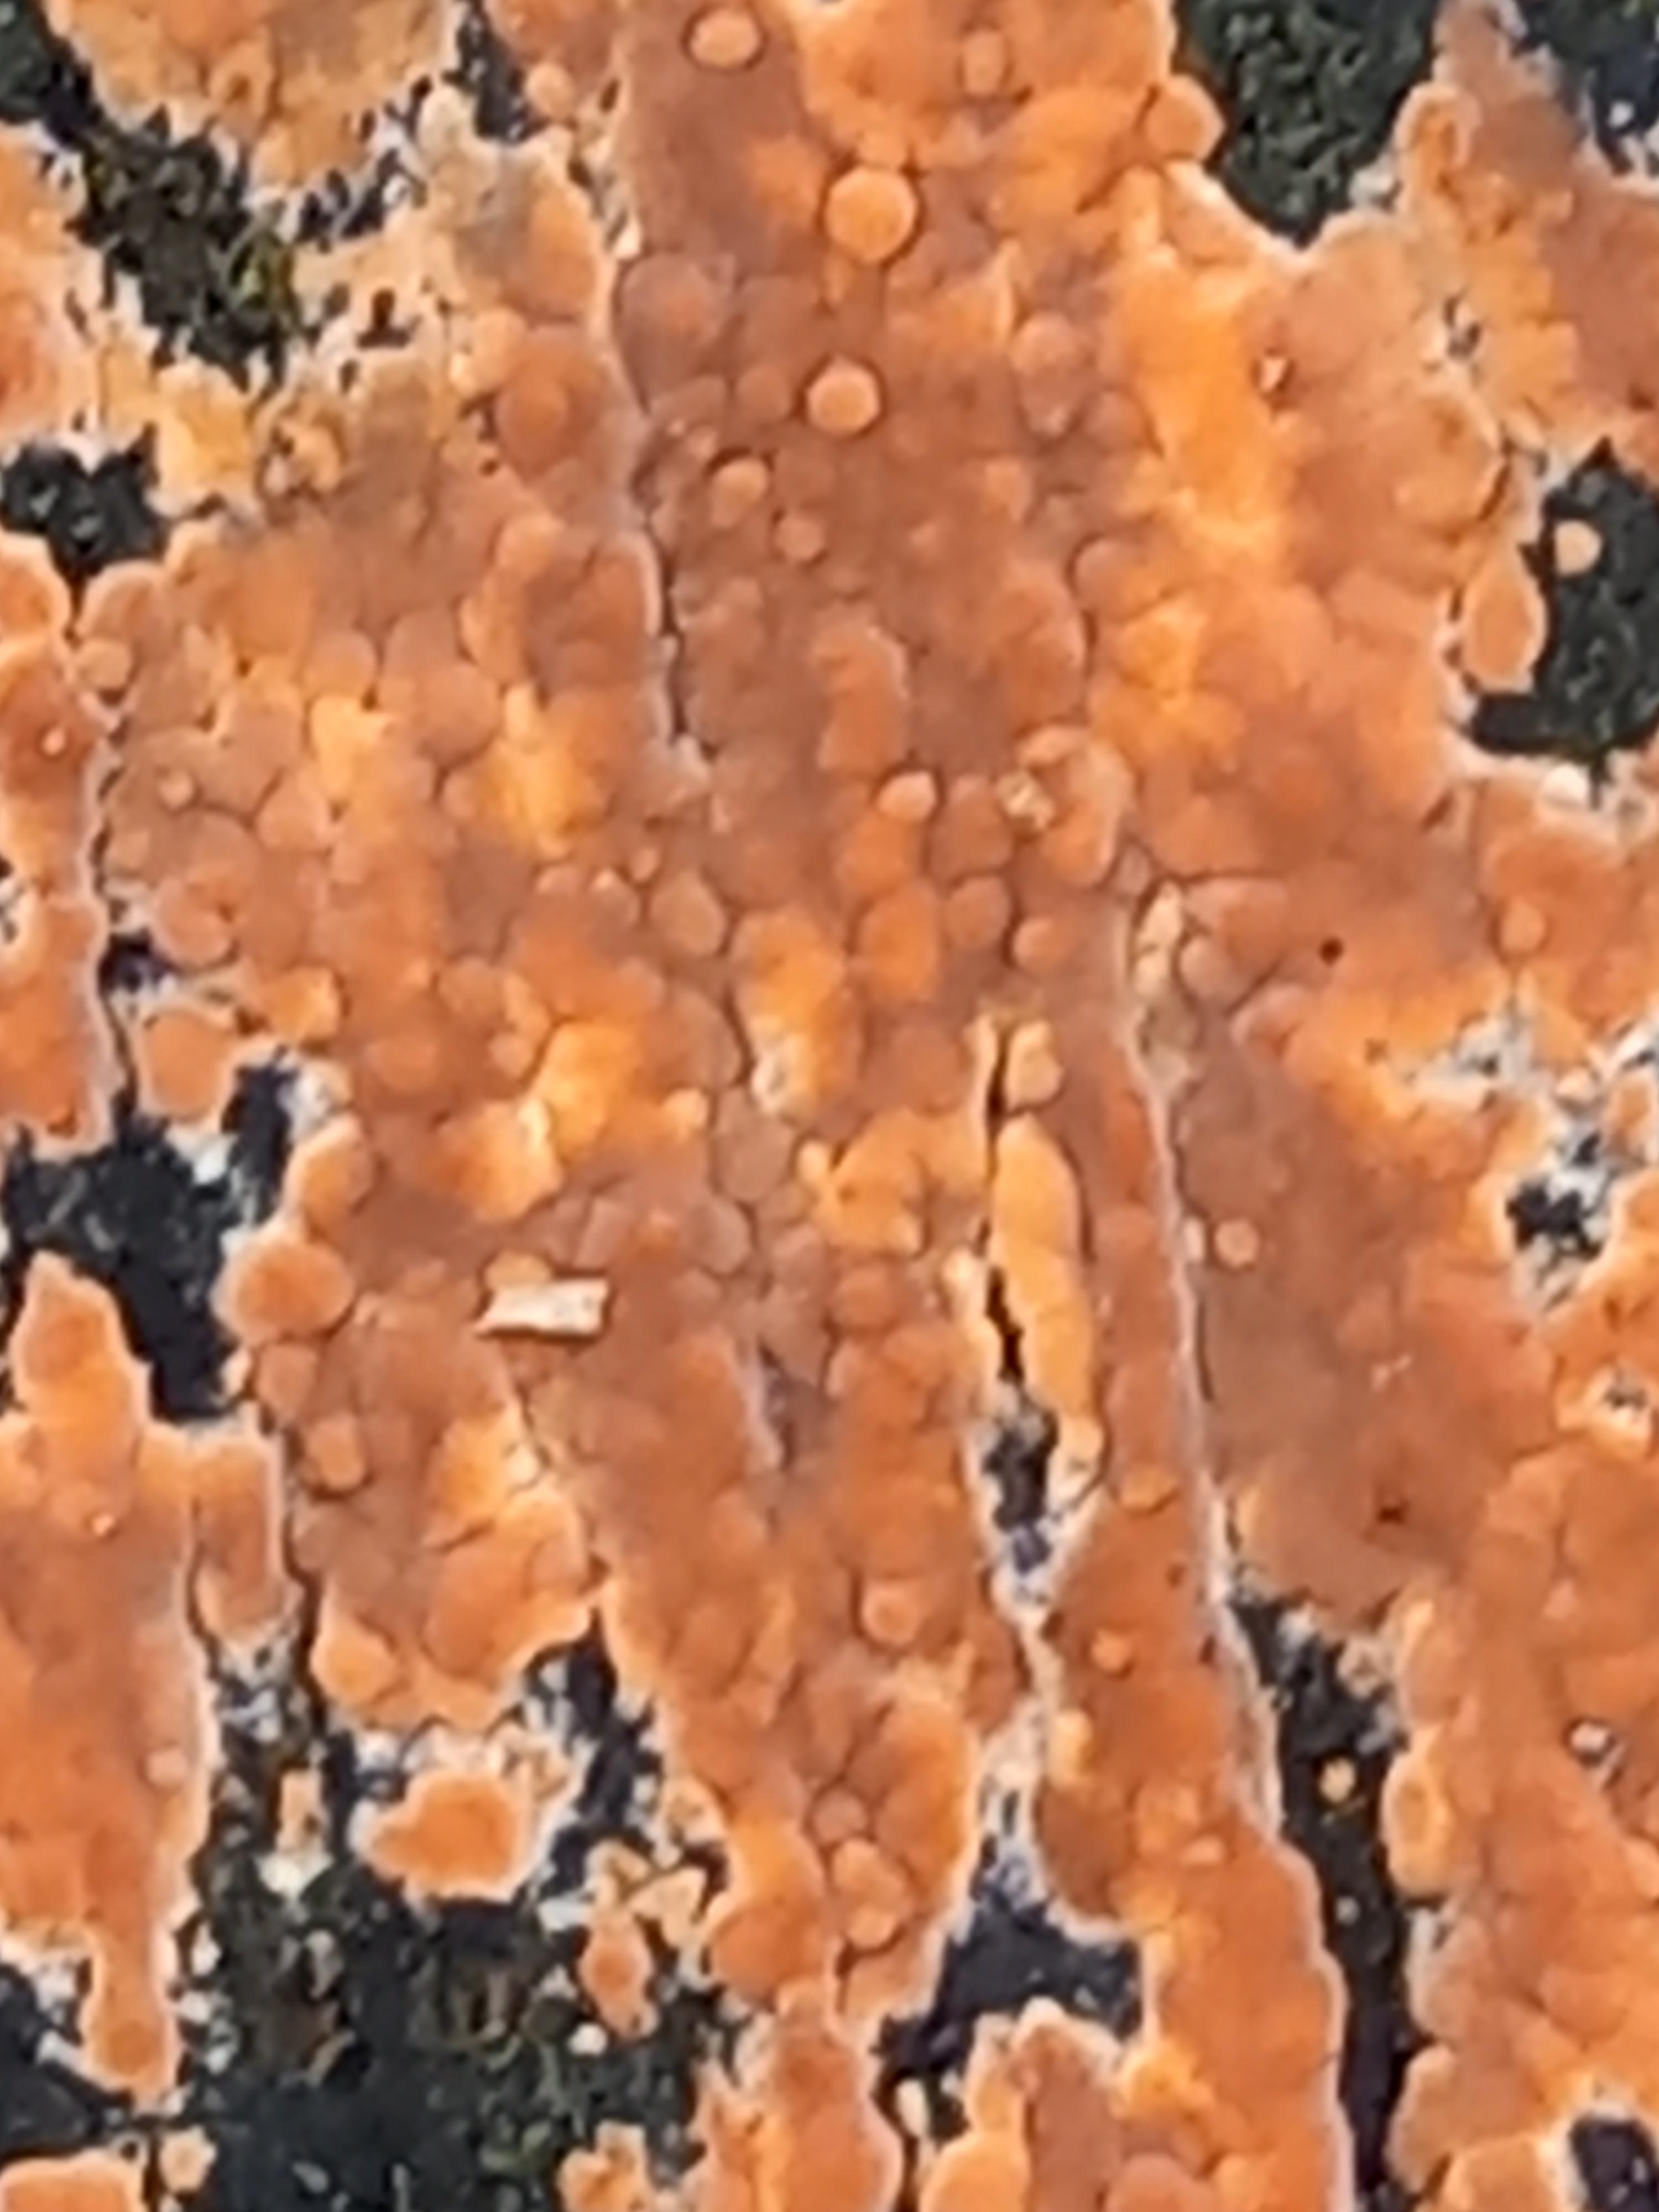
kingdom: Fungi
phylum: Basidiomycota
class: Agaricomycetes
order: Russulales
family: Peniophoraceae
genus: Peniophora
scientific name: Peniophora incarnata
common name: laksefarvet voksskind
